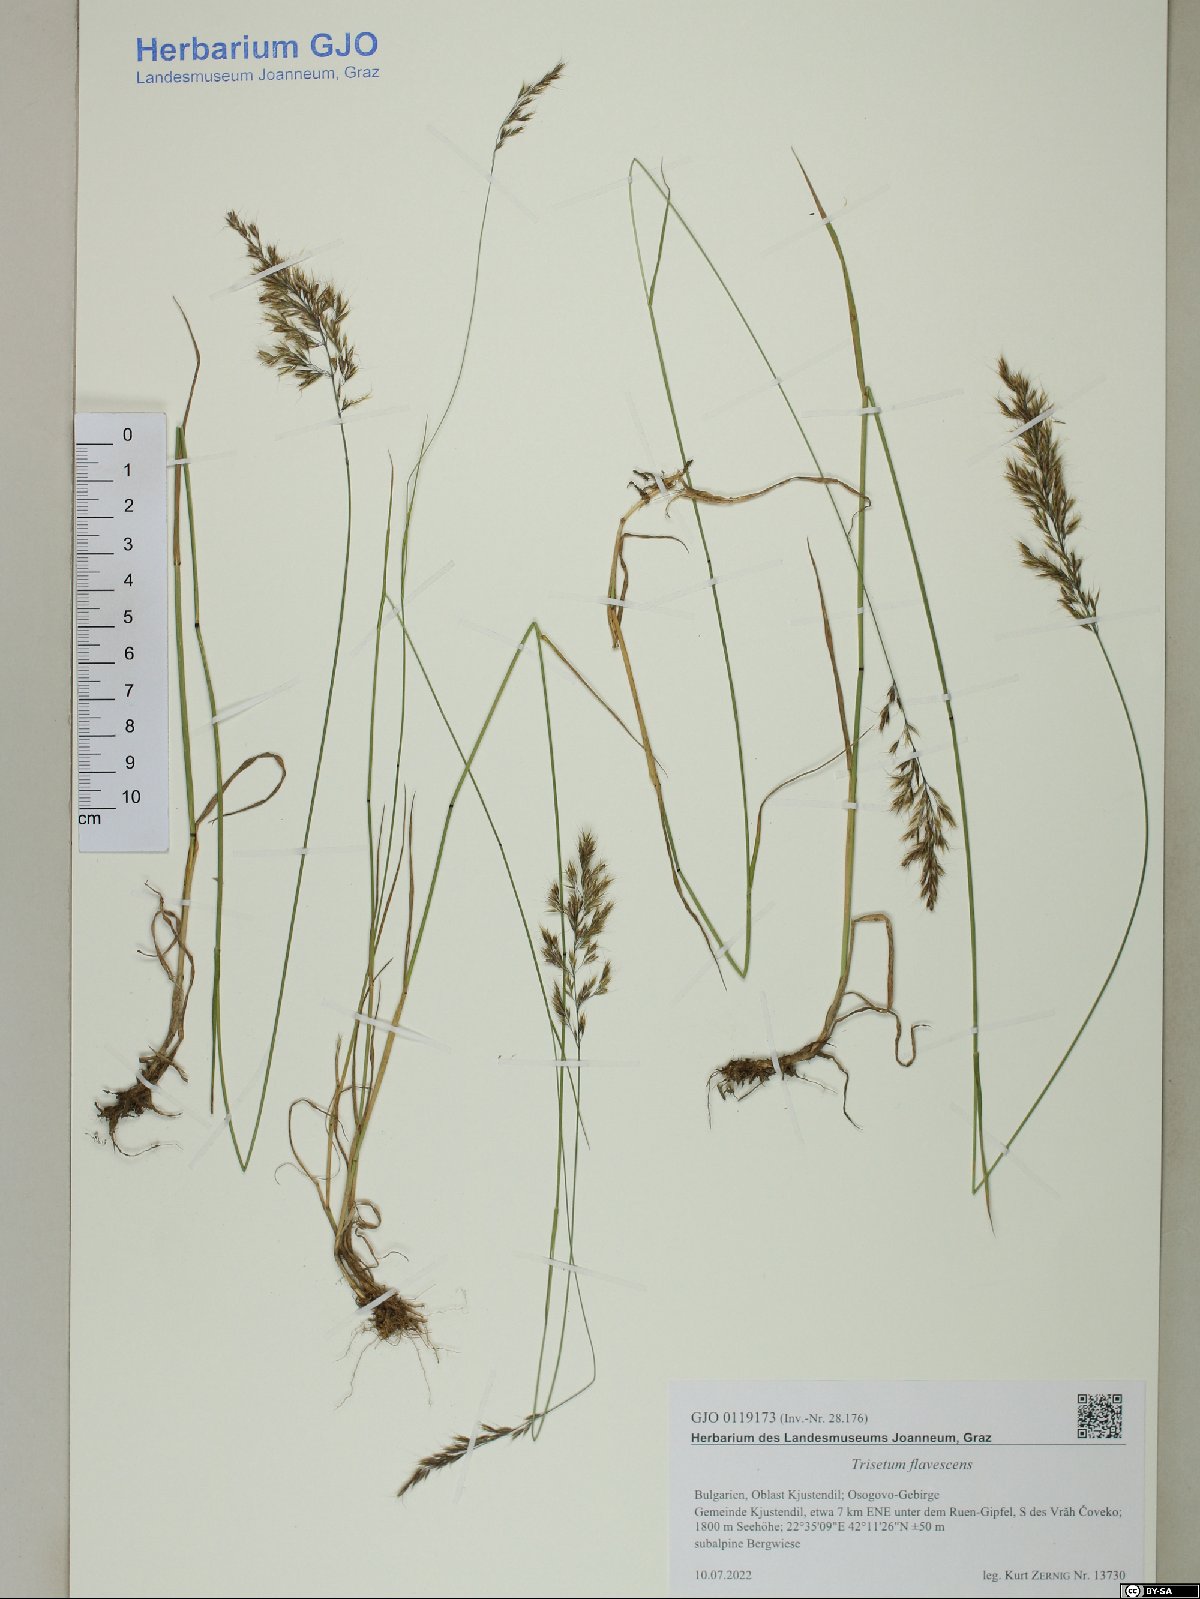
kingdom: Plantae
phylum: Tracheophyta
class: Liliopsida
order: Poales
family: Poaceae
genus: Trisetum
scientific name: Trisetum flavescens
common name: Yellow oat-grass
